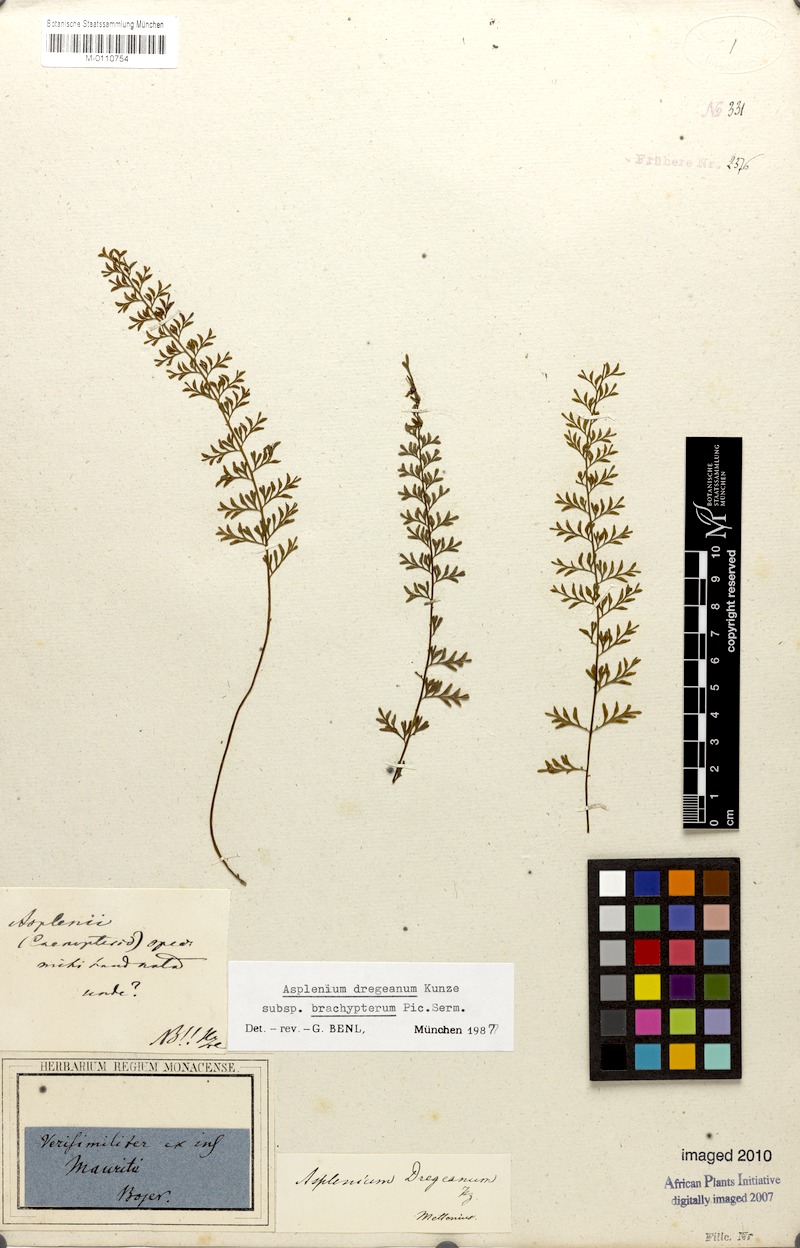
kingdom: Plantae
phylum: Tracheophyta
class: Polypodiopsida
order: Polypodiales
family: Aspleniaceae
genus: Asplenium
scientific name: Asplenium dregeanum
